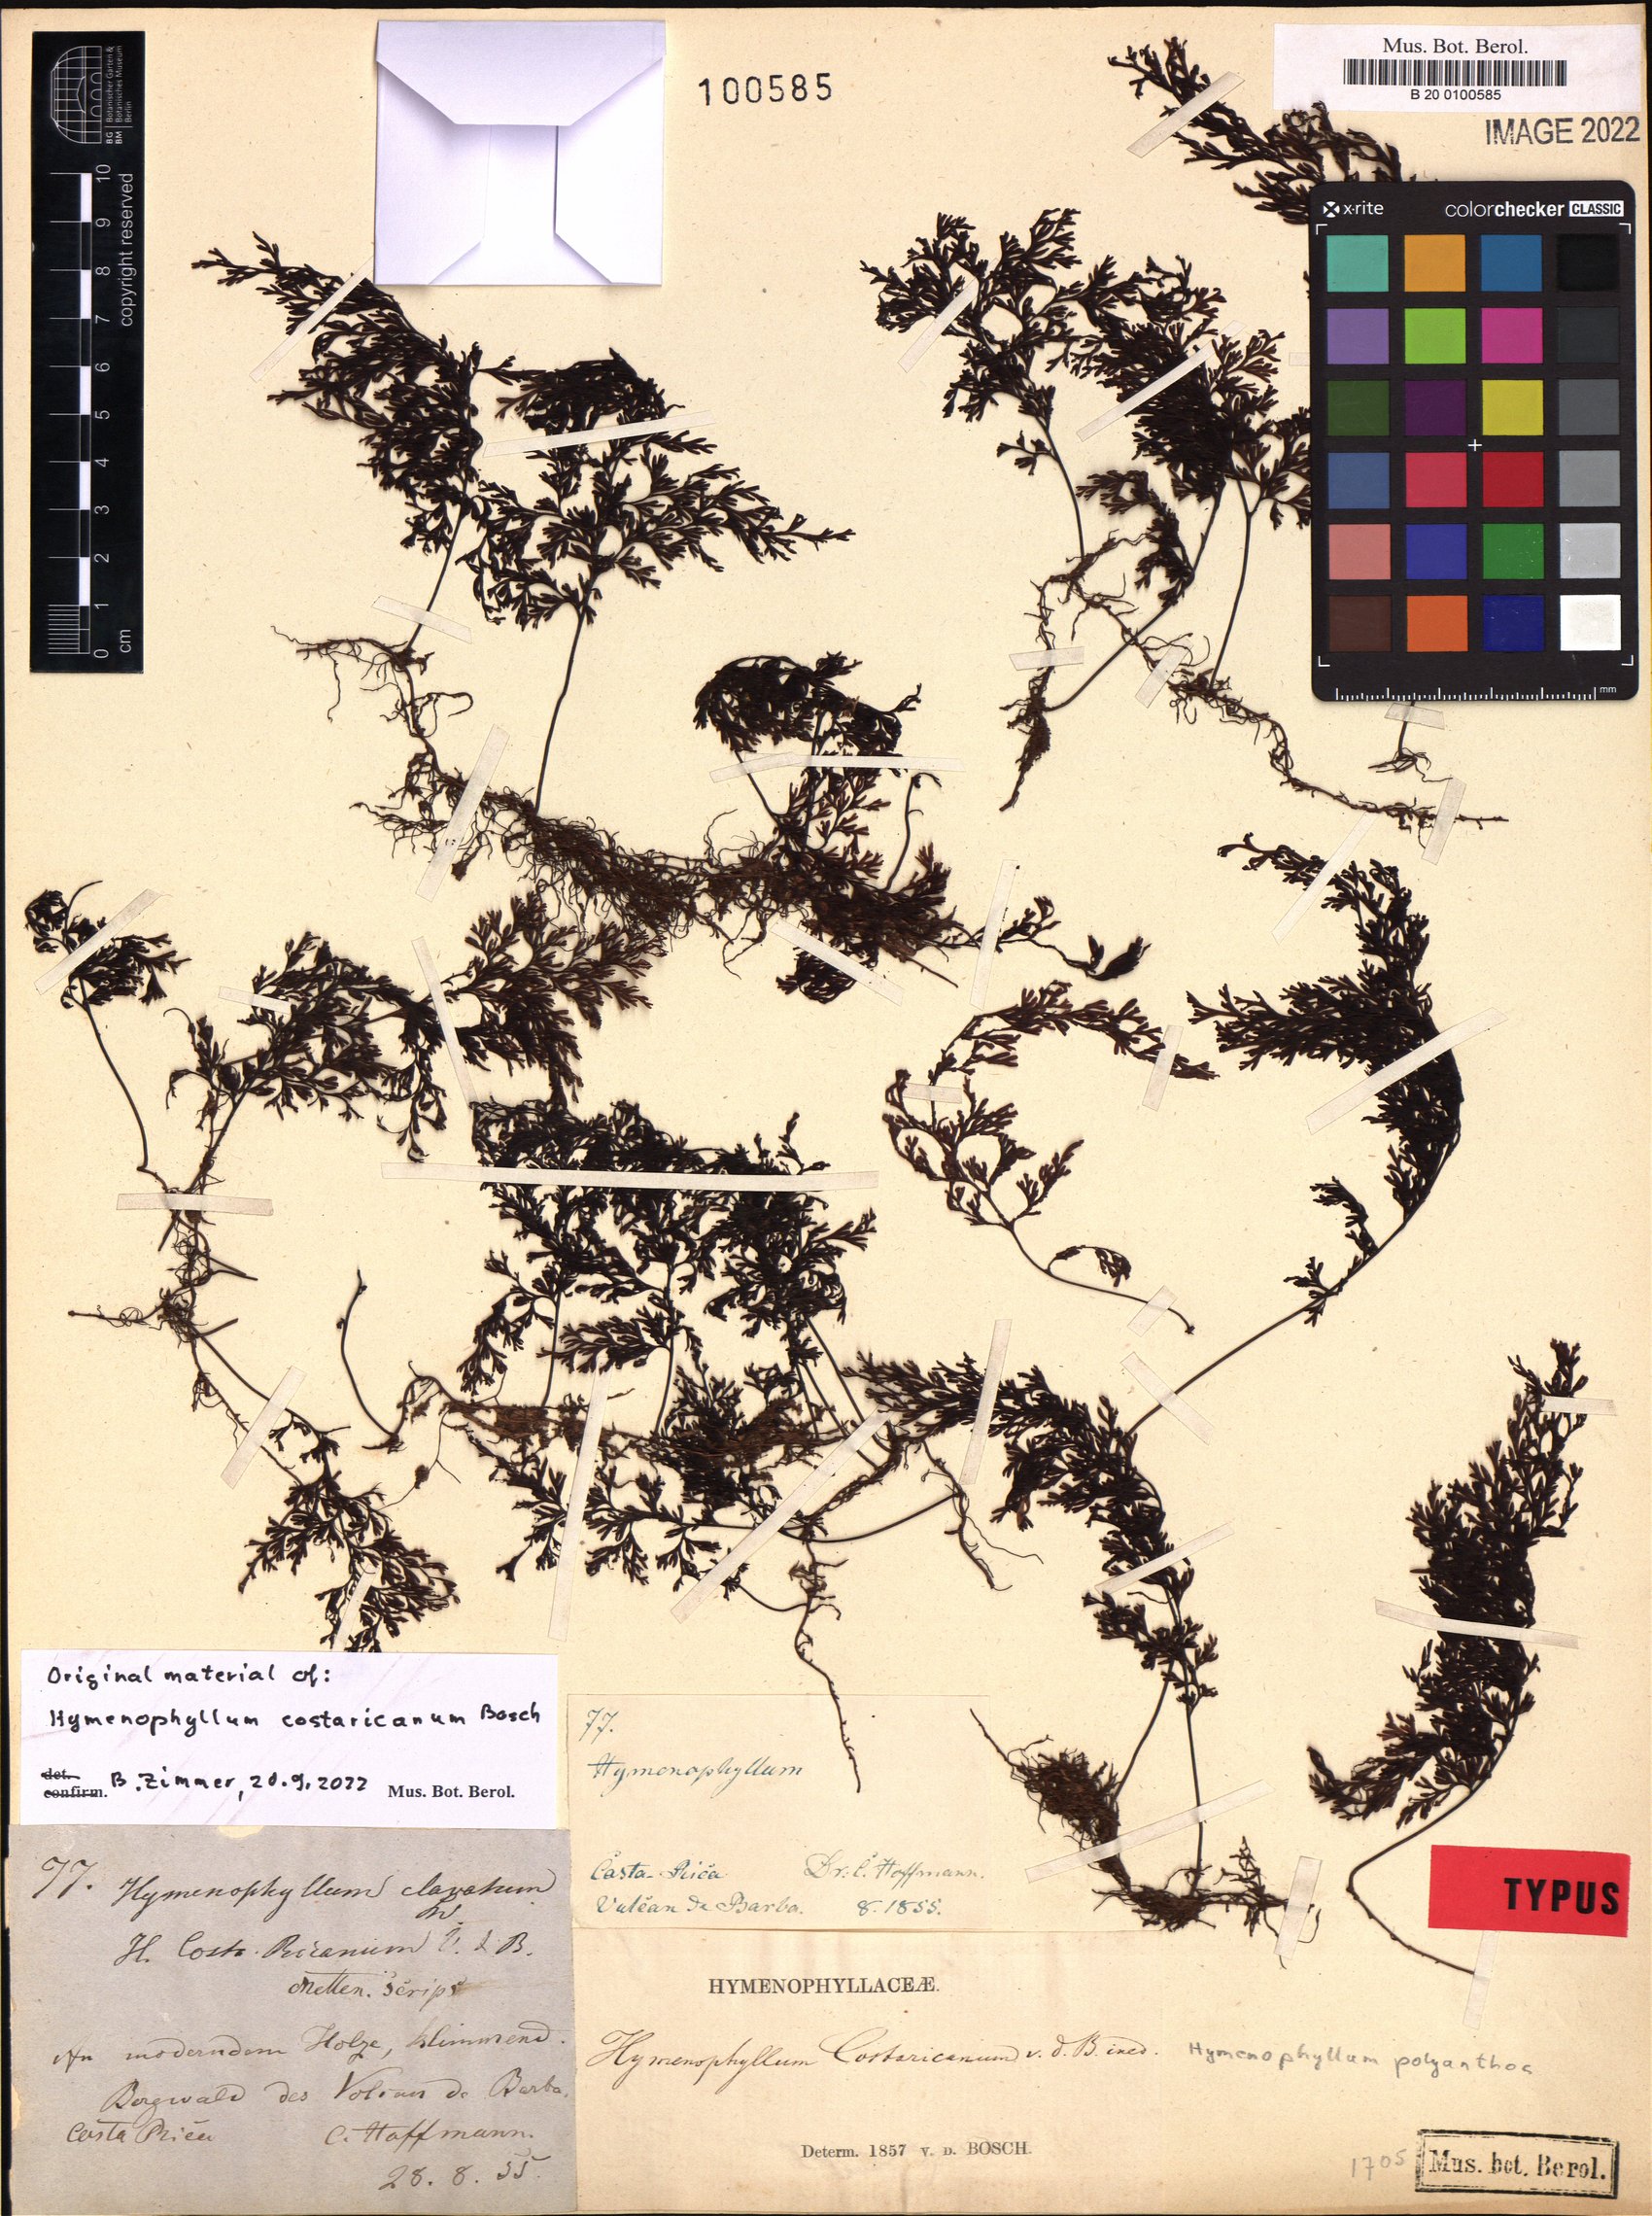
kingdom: Plantae
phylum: Tracheophyta
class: Polypodiopsida
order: Hymenophyllales
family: Hymenophyllaceae
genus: Hymenophyllum
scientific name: Hymenophyllum polyanthos
